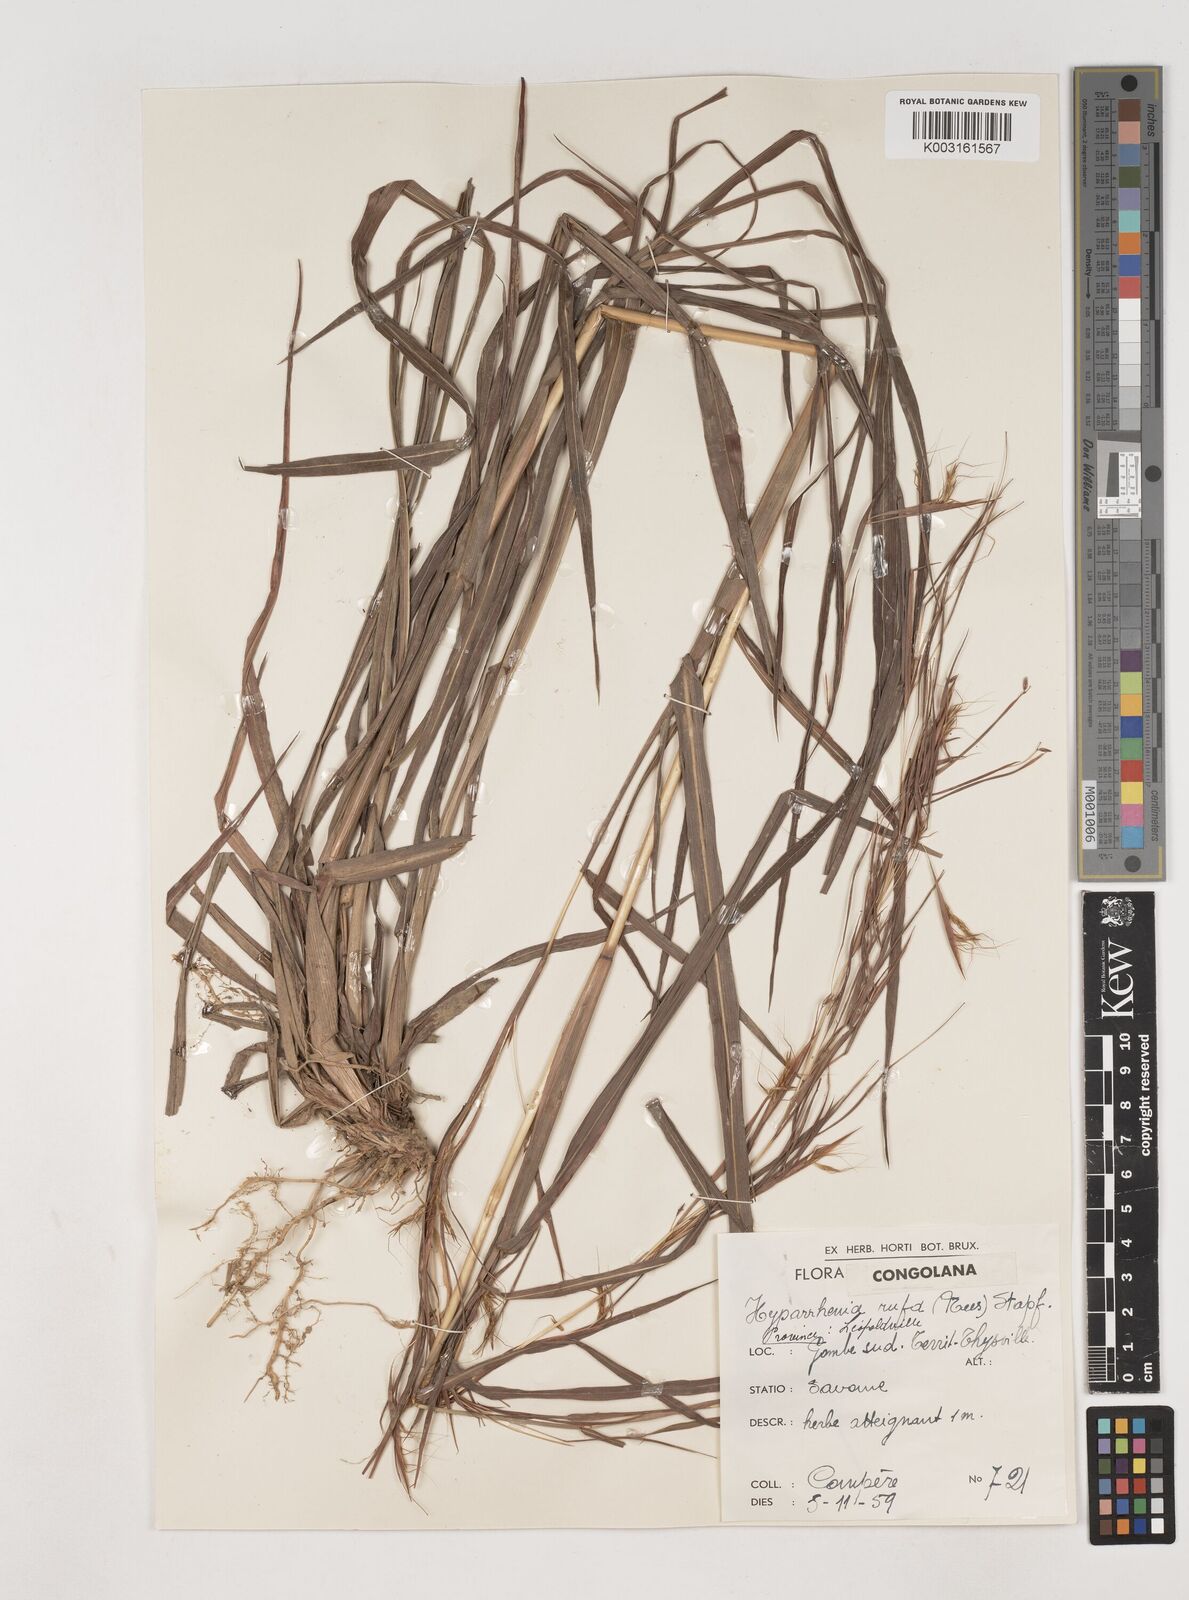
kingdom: Plantae
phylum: Tracheophyta
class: Liliopsida
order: Poales
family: Poaceae
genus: Hyparrhenia
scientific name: Hyparrhenia rufa
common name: Jaraguagrass
